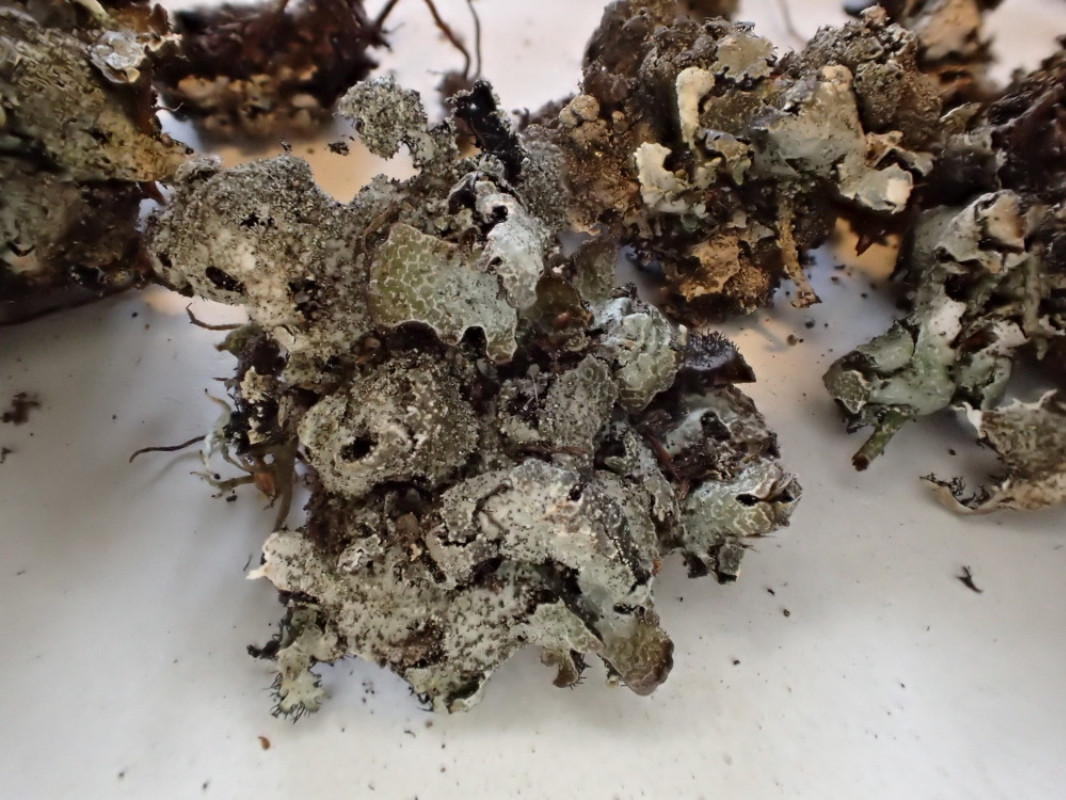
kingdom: Fungi
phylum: Ascomycota
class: Lecanoromycetes
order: Lecanorales
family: Parmeliaceae
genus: Parmelia
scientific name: Parmelia saxatilis
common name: farve-skållav
